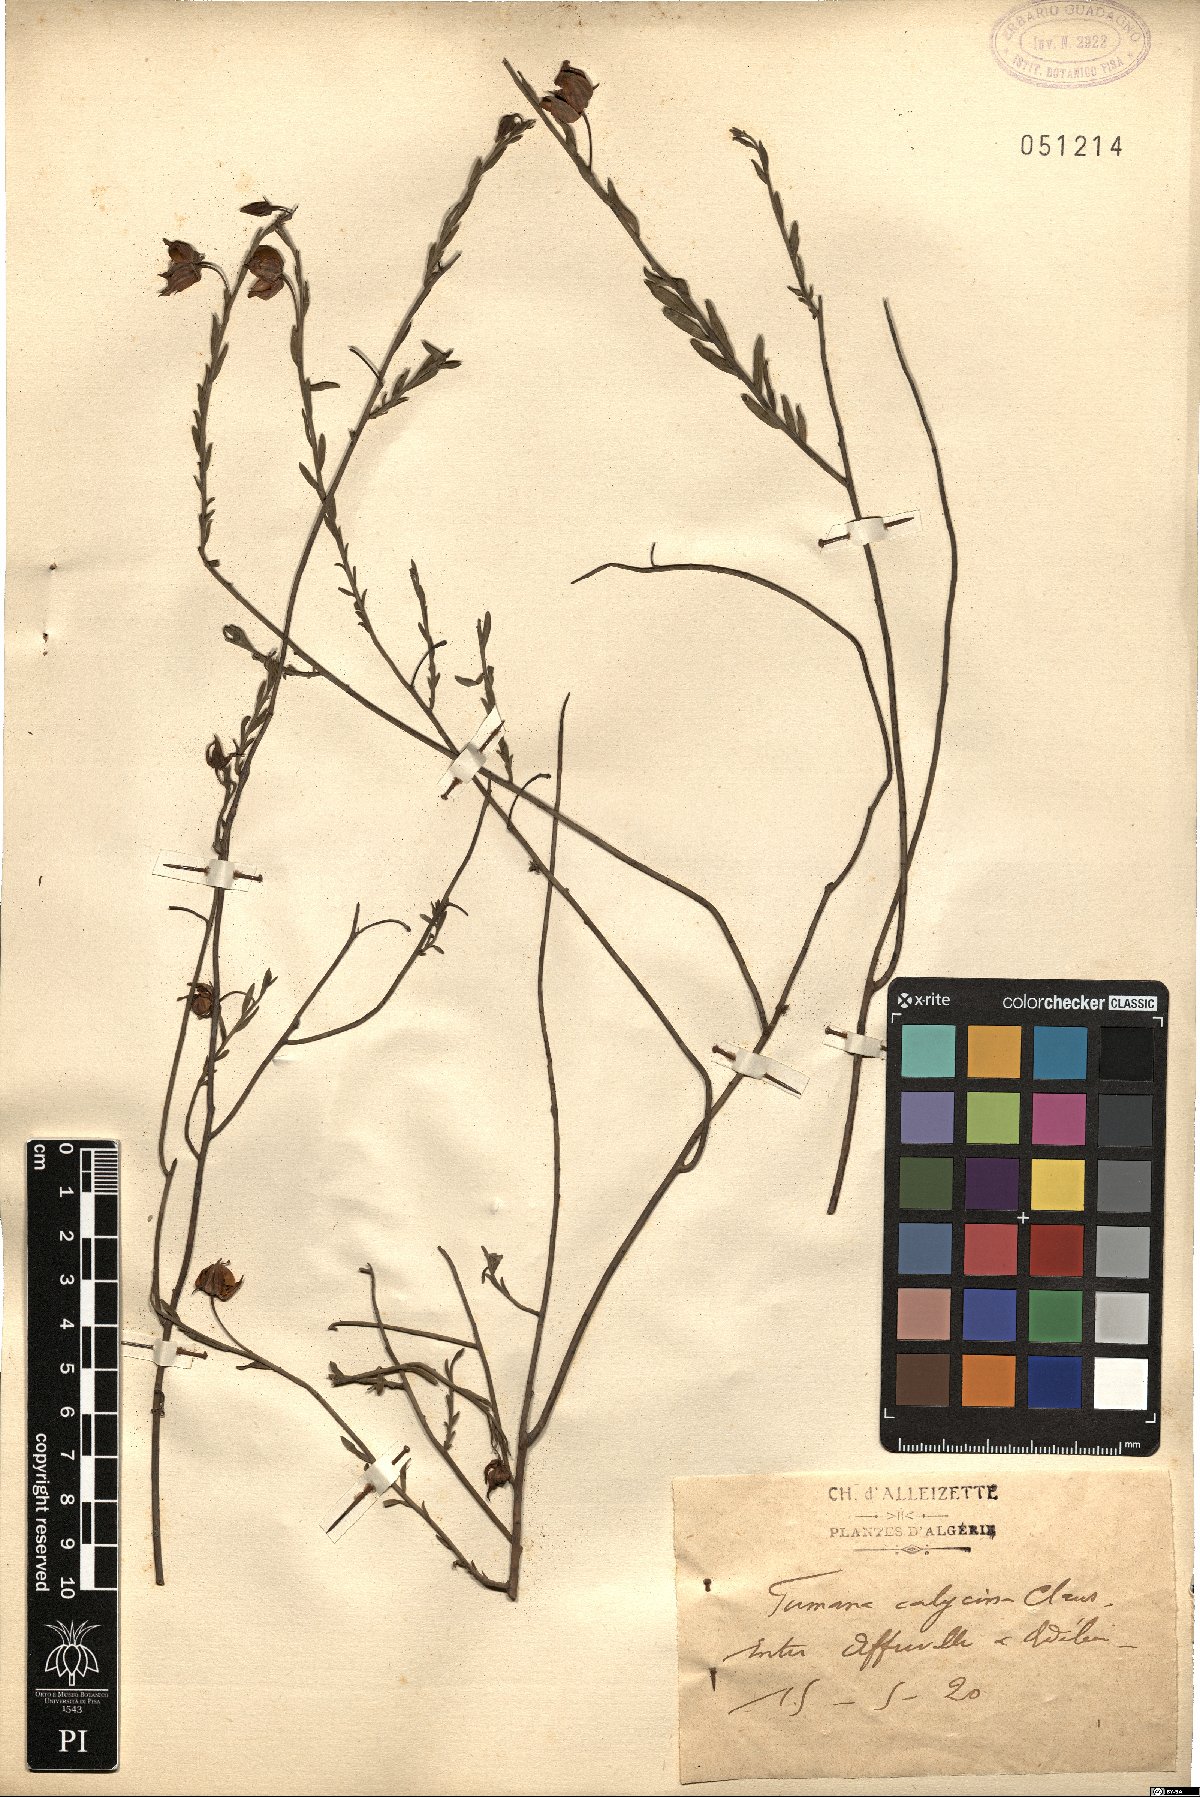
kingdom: Plantae
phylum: Tracheophyta
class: Magnoliopsida
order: Malvales
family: Cistaceae
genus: Fumana
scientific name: Fumana fontanesii
